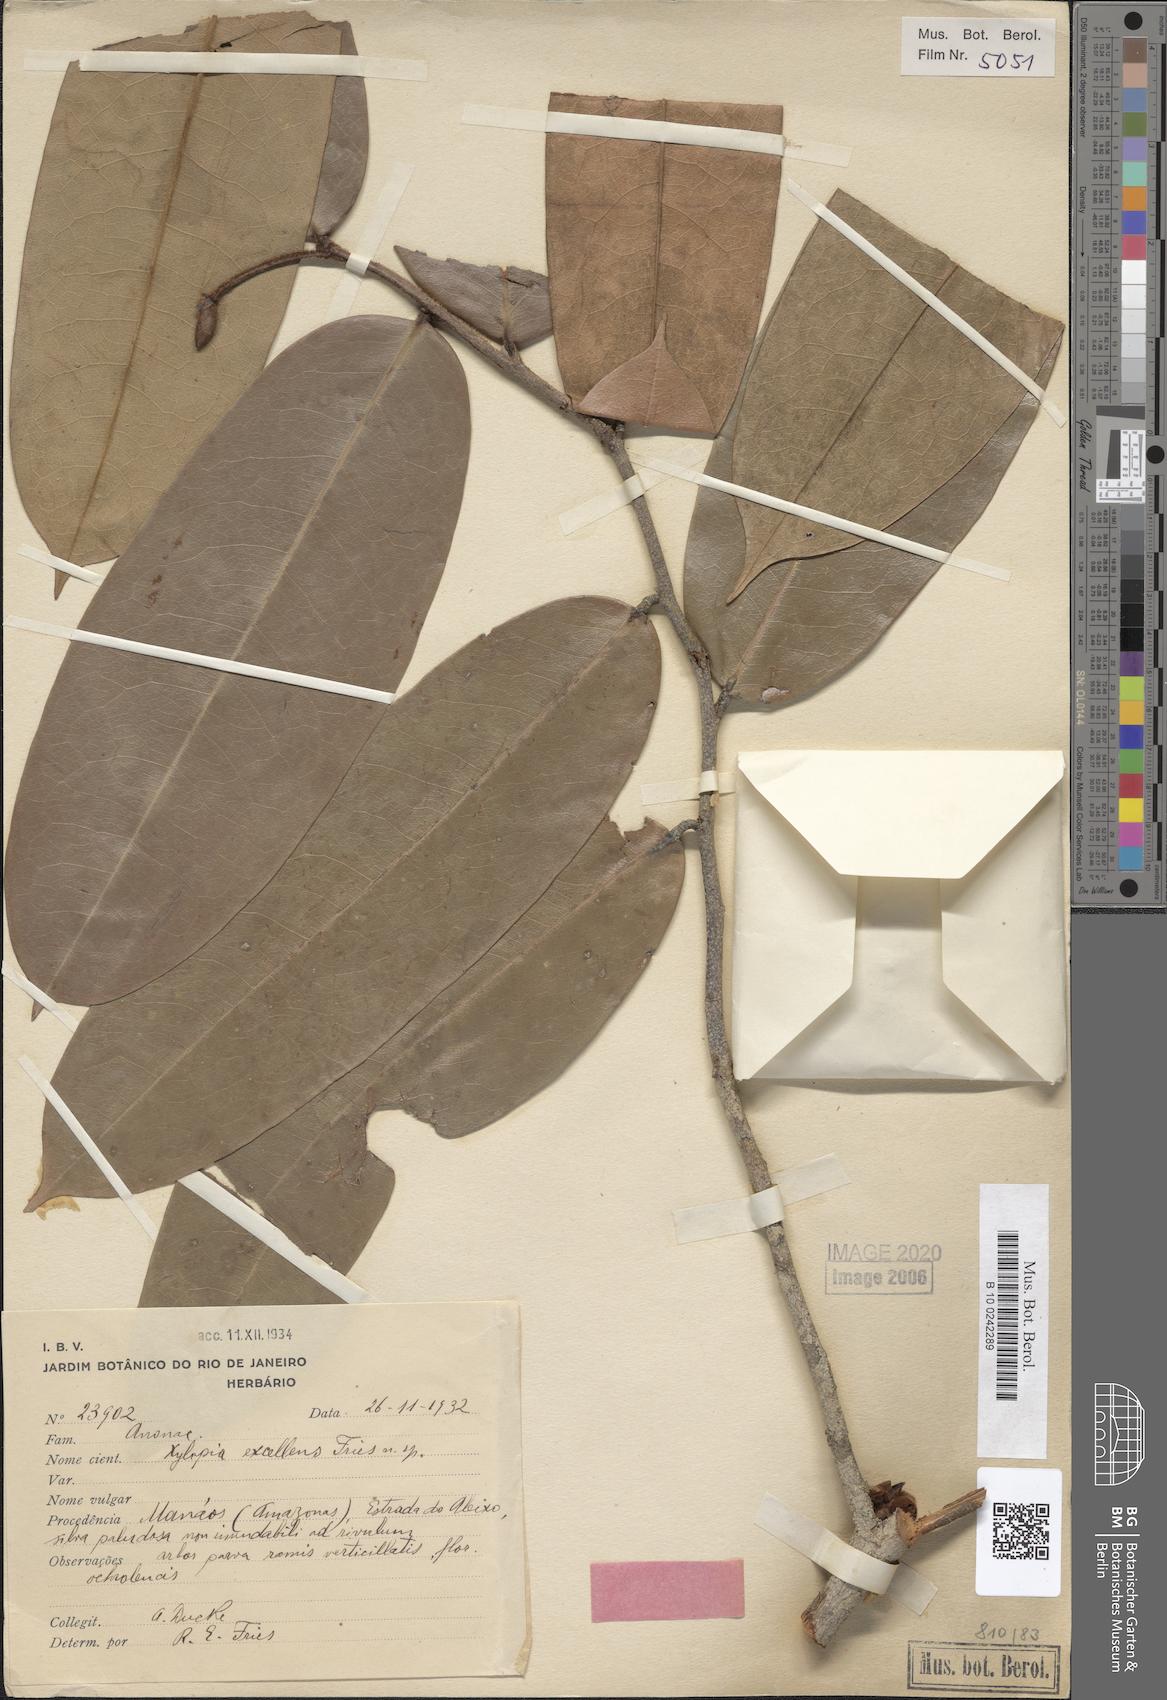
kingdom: Plantae
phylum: Tracheophyta
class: Magnoliopsida
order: Magnoliales
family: Annonaceae
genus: Xylopia
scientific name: Xylopia excellens
